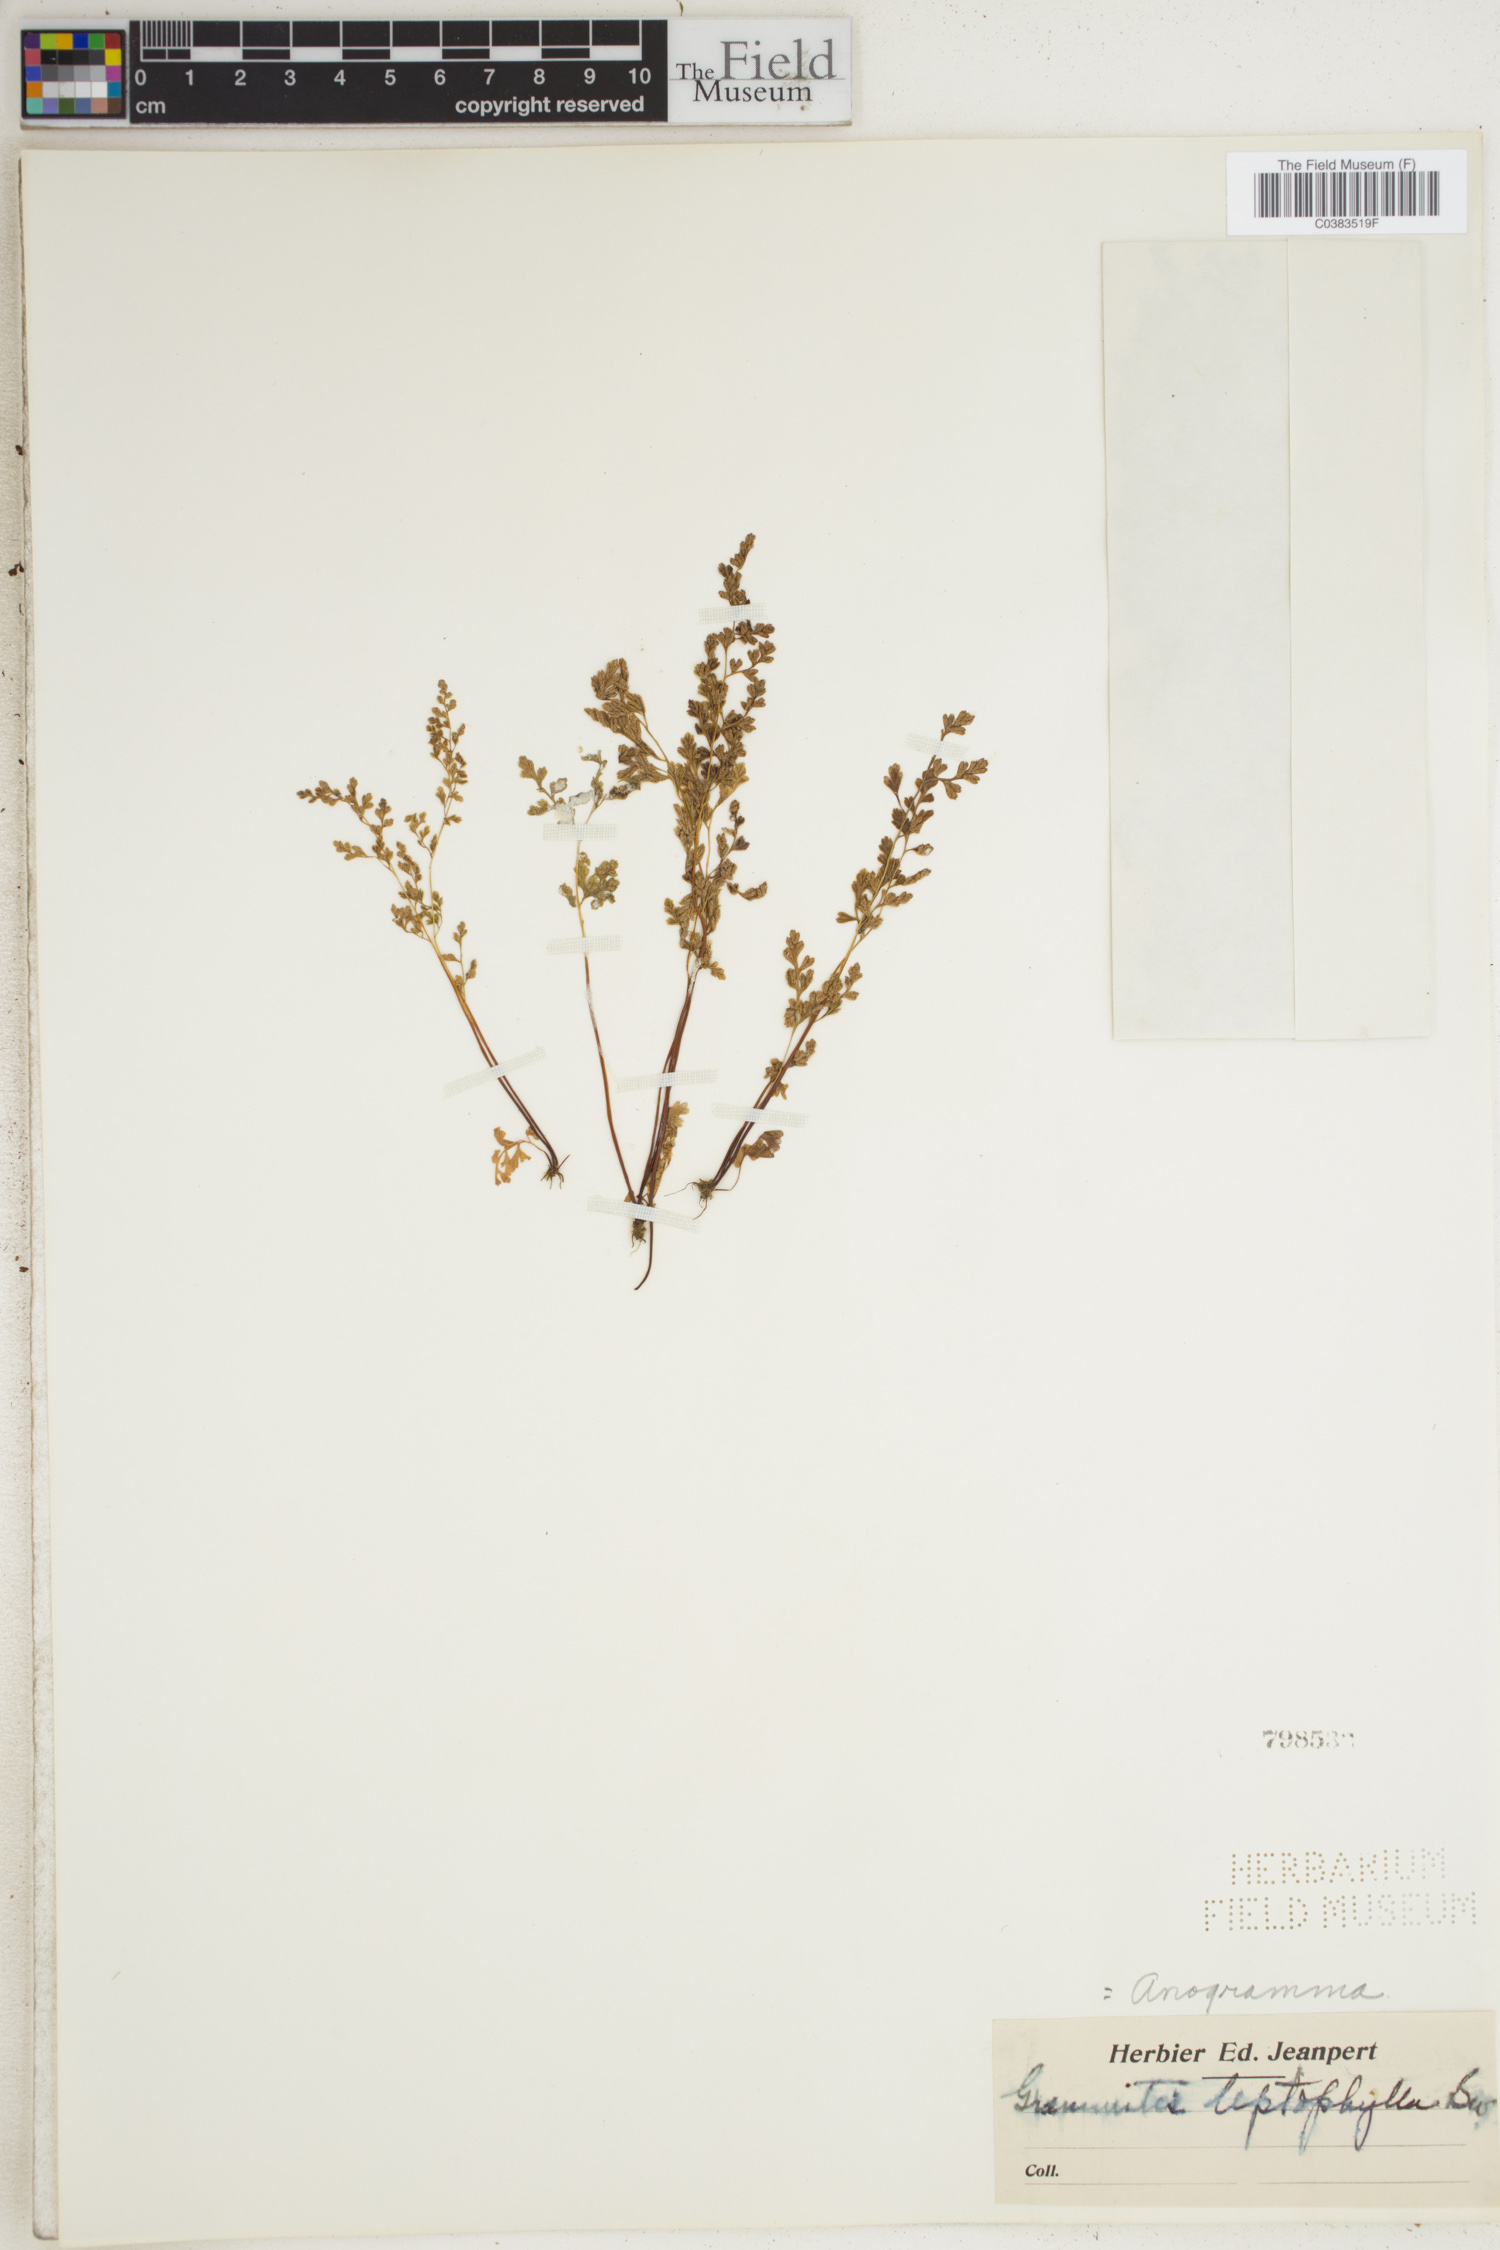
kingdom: Plantae
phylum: Tracheophyta
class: Polypodiopsida
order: Polypodiales
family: Pteridaceae
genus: Anogramma
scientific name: Anogramma leptophylla
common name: Jersey fern
